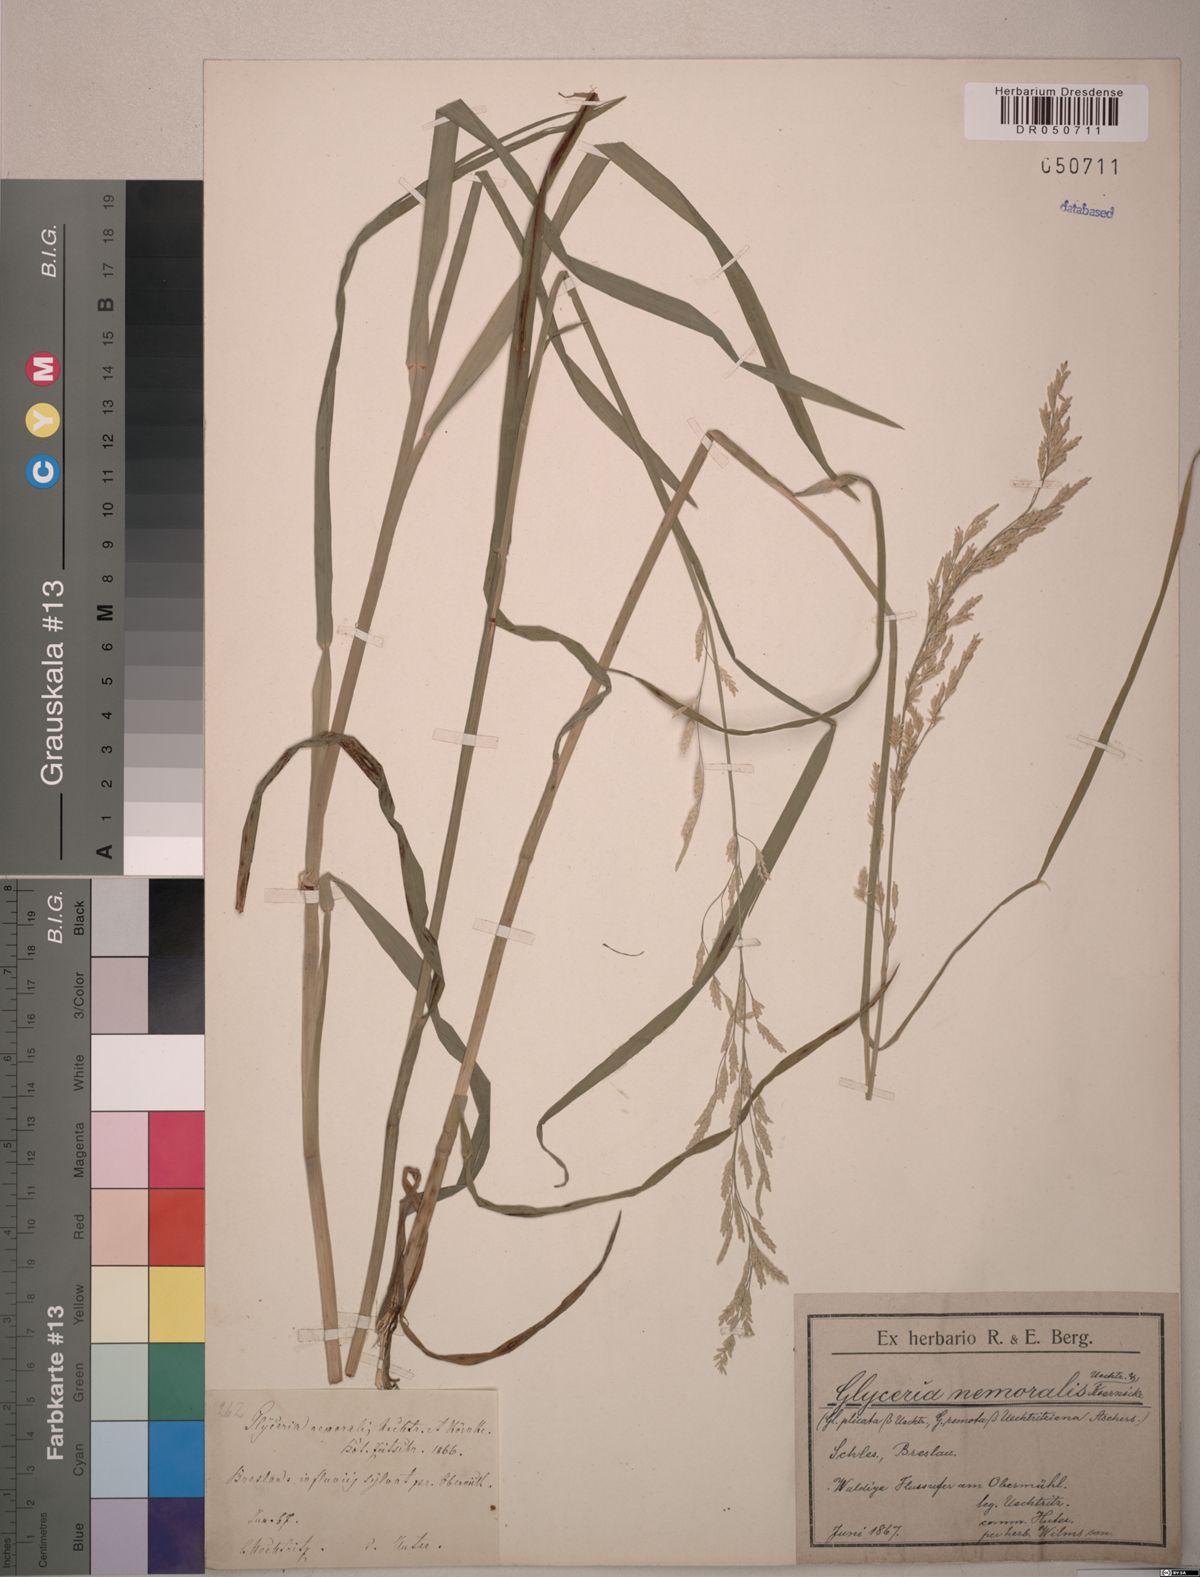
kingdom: Plantae
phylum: Tracheophyta
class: Liliopsida
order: Poales
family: Poaceae
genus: Glyceria
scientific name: Glyceria nemoralis
